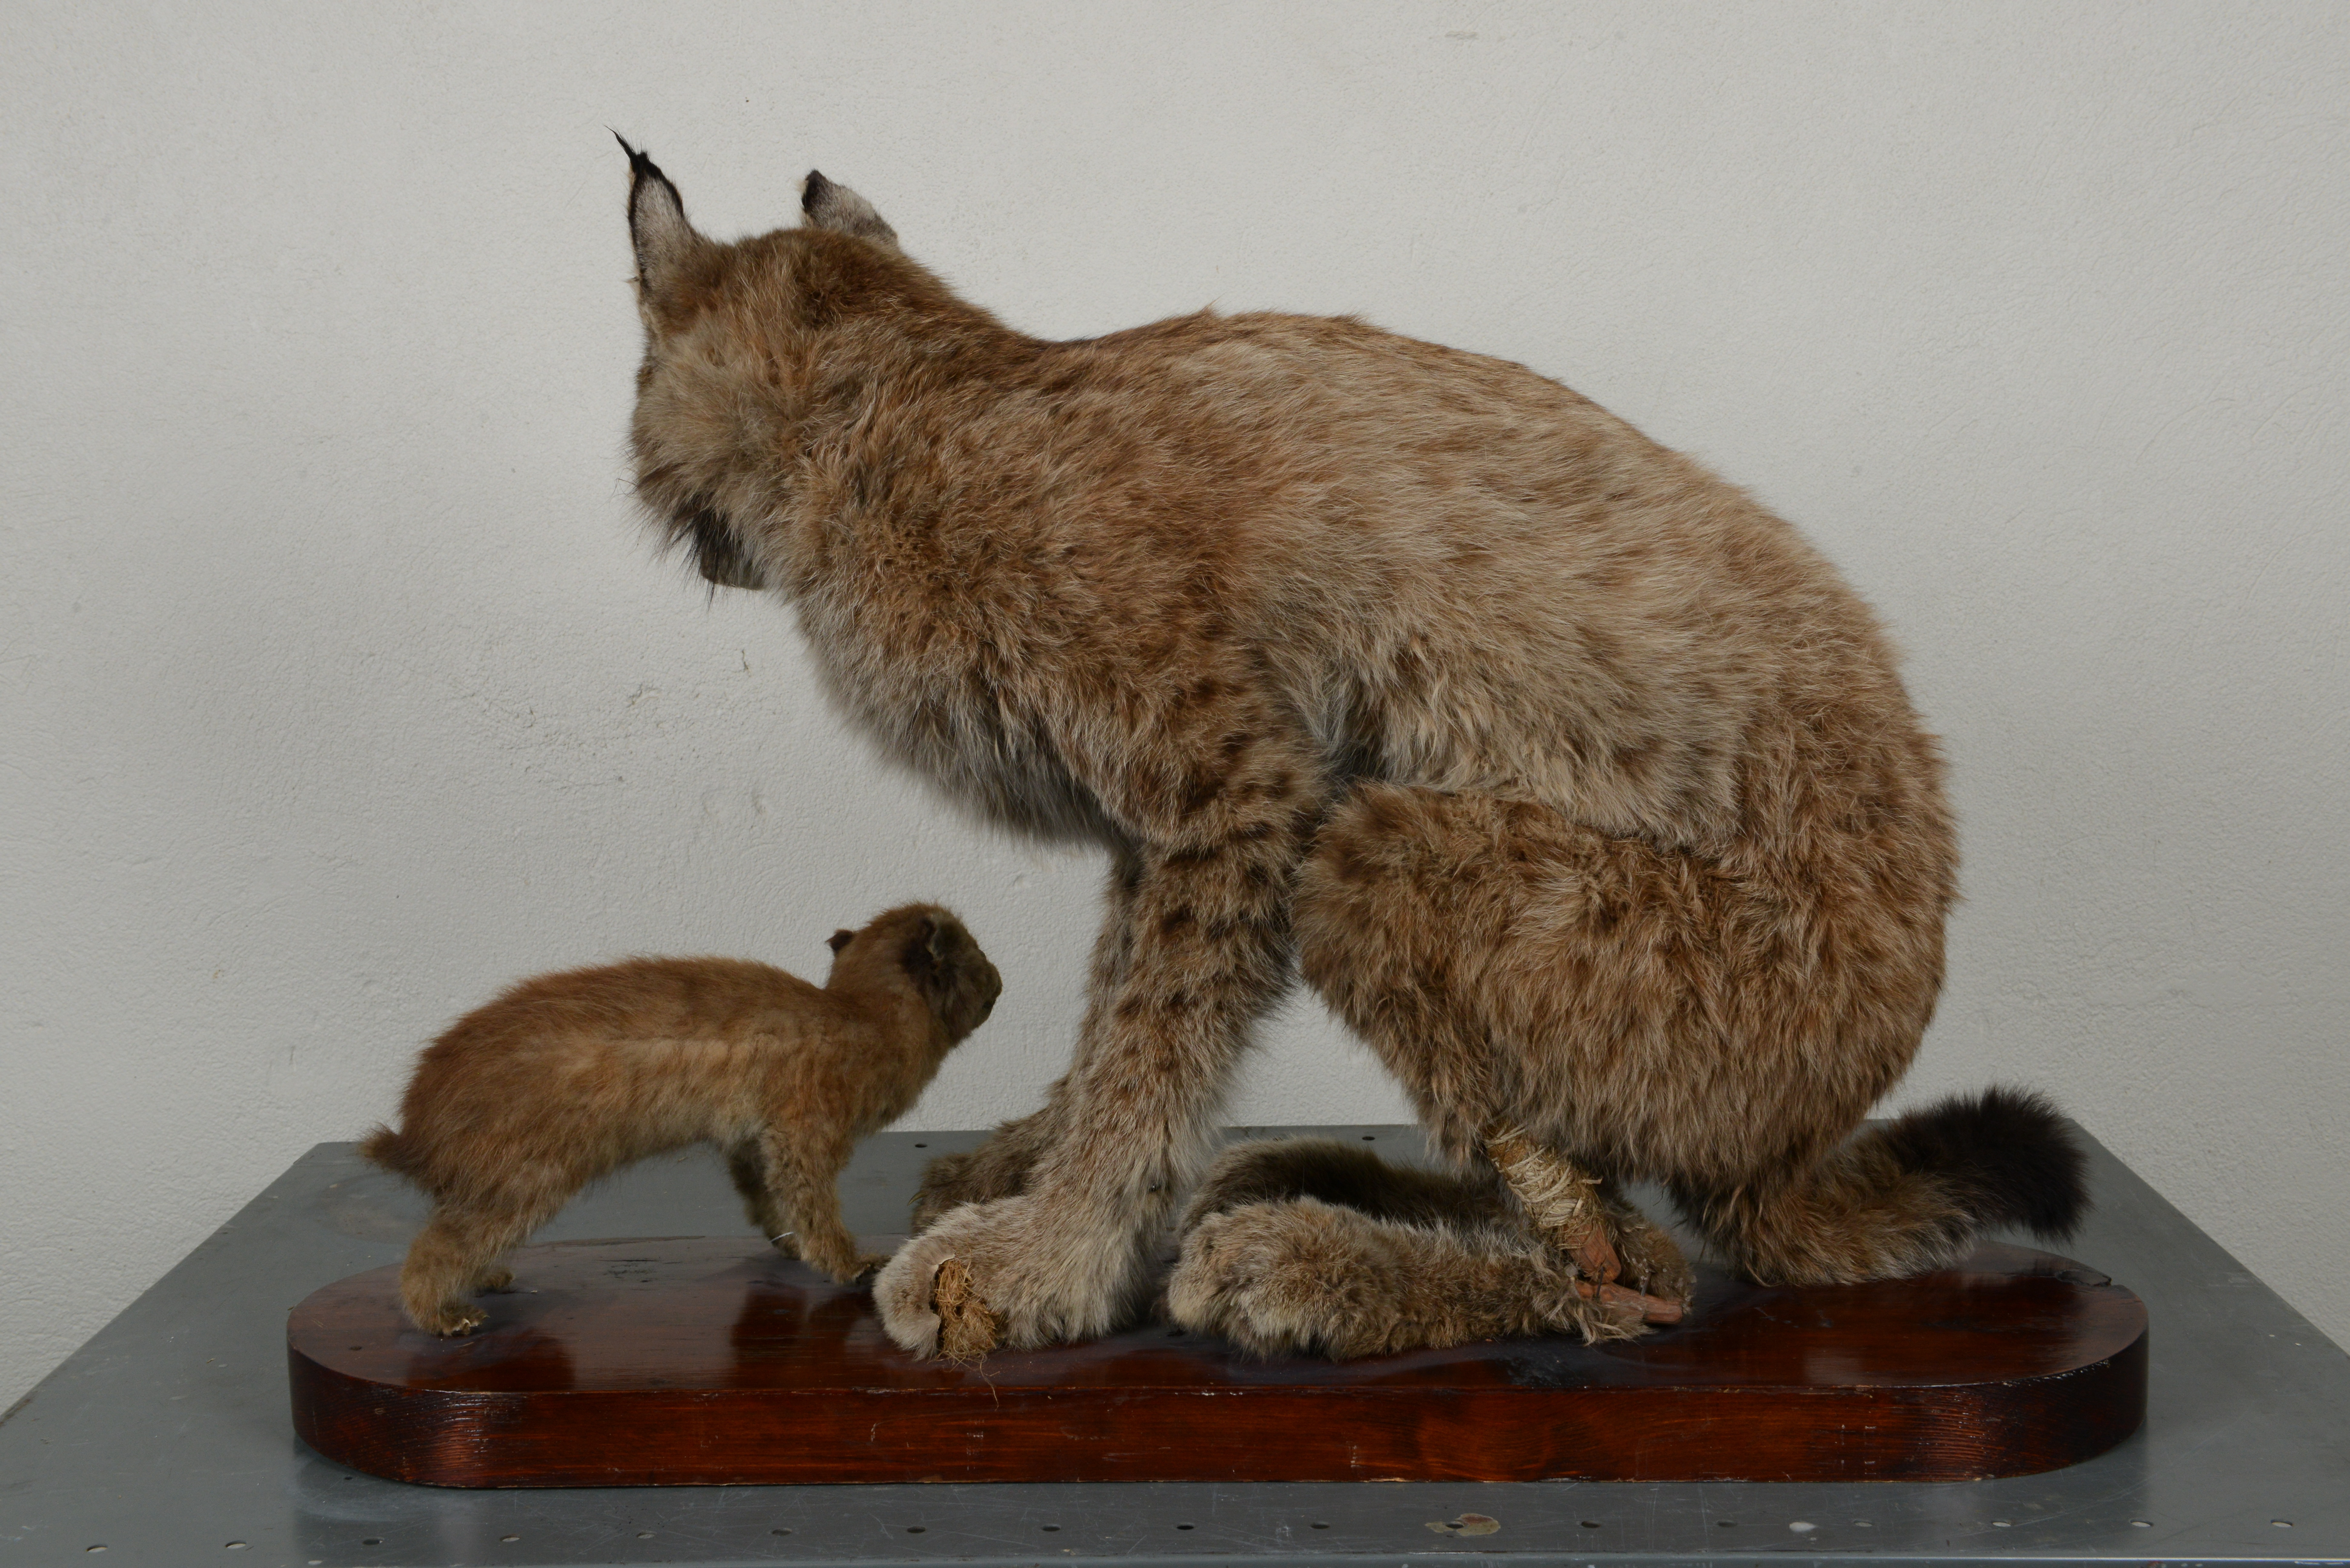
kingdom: Animalia
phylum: Chordata
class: Mammalia
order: Carnivora
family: Felidae
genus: Lynx
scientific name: Lynx lynx
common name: Eurasian lynx
